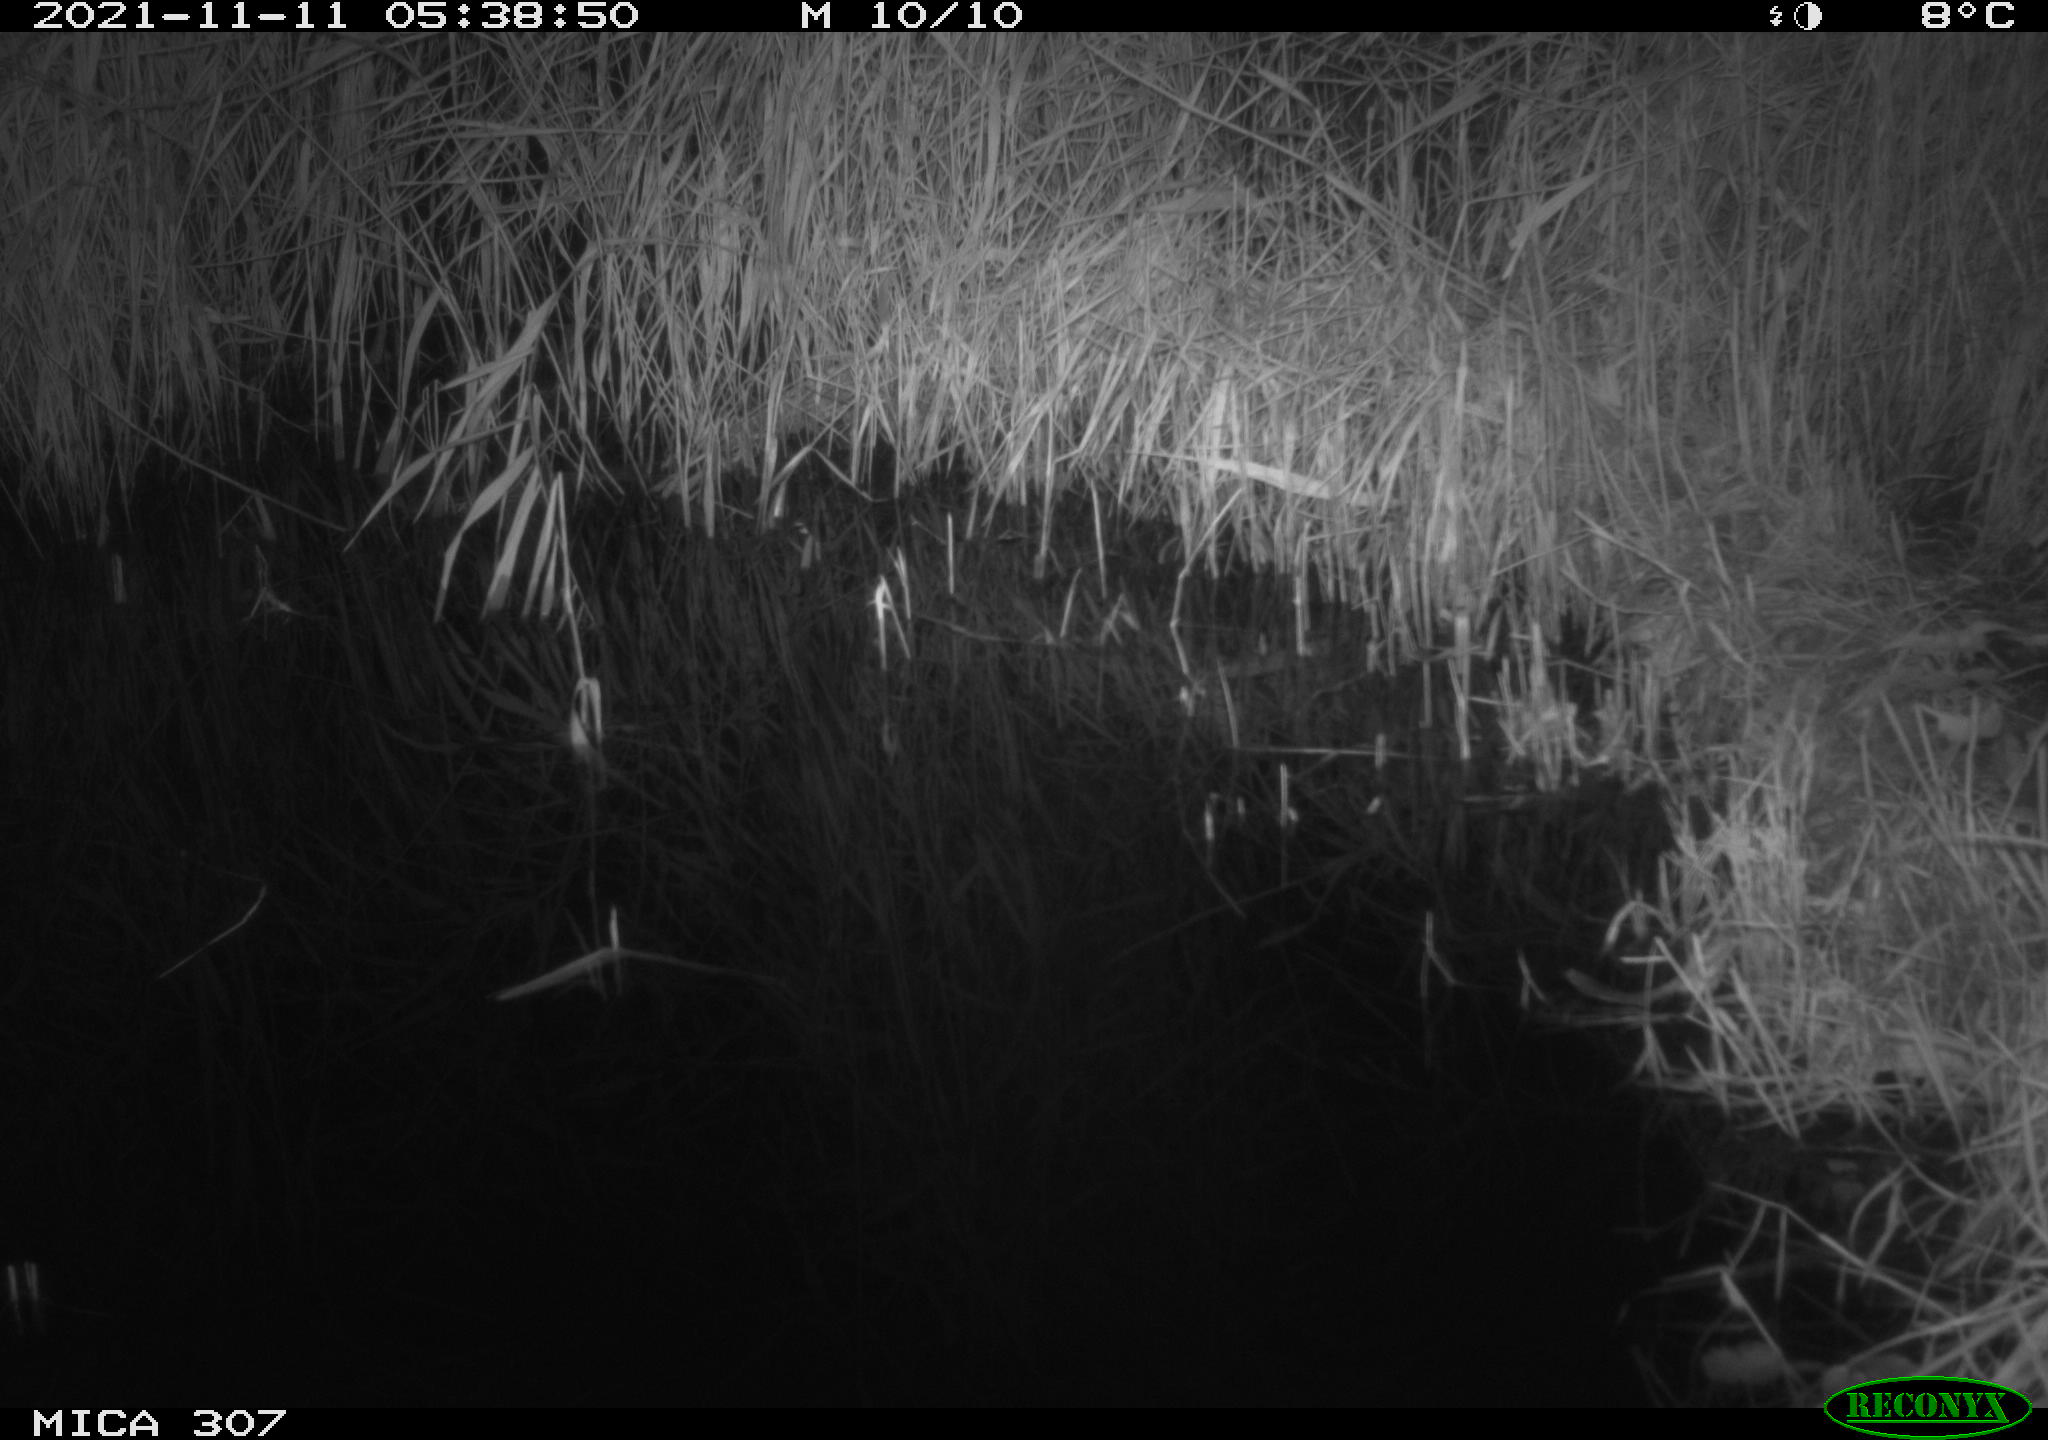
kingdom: Animalia
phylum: Chordata
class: Mammalia
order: Rodentia
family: Muridae
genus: Rattus
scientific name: Rattus norvegicus
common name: Brown rat
